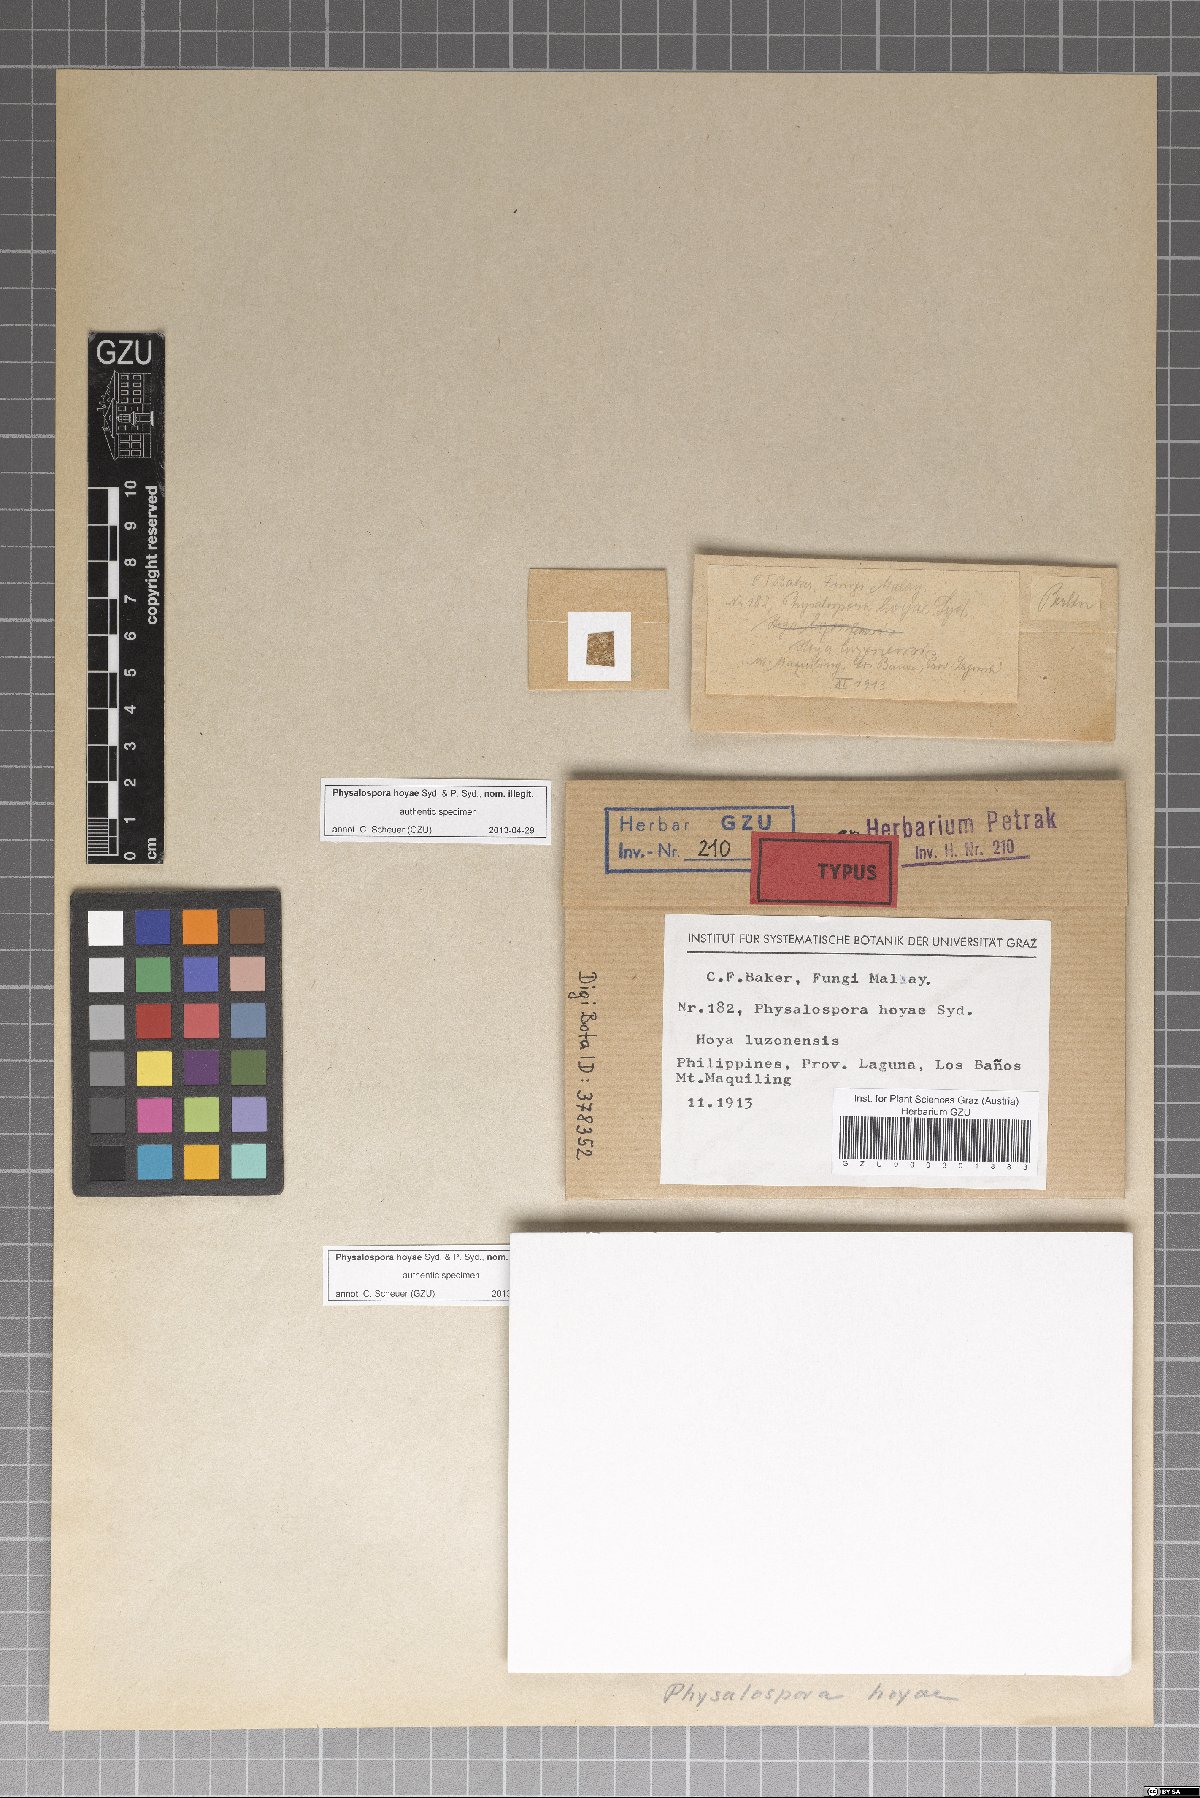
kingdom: Fungi
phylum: Ascomycota
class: Sordariomycetes
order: Xylariales
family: Hyponectriaceae
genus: Physalospora
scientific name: Physalospora
